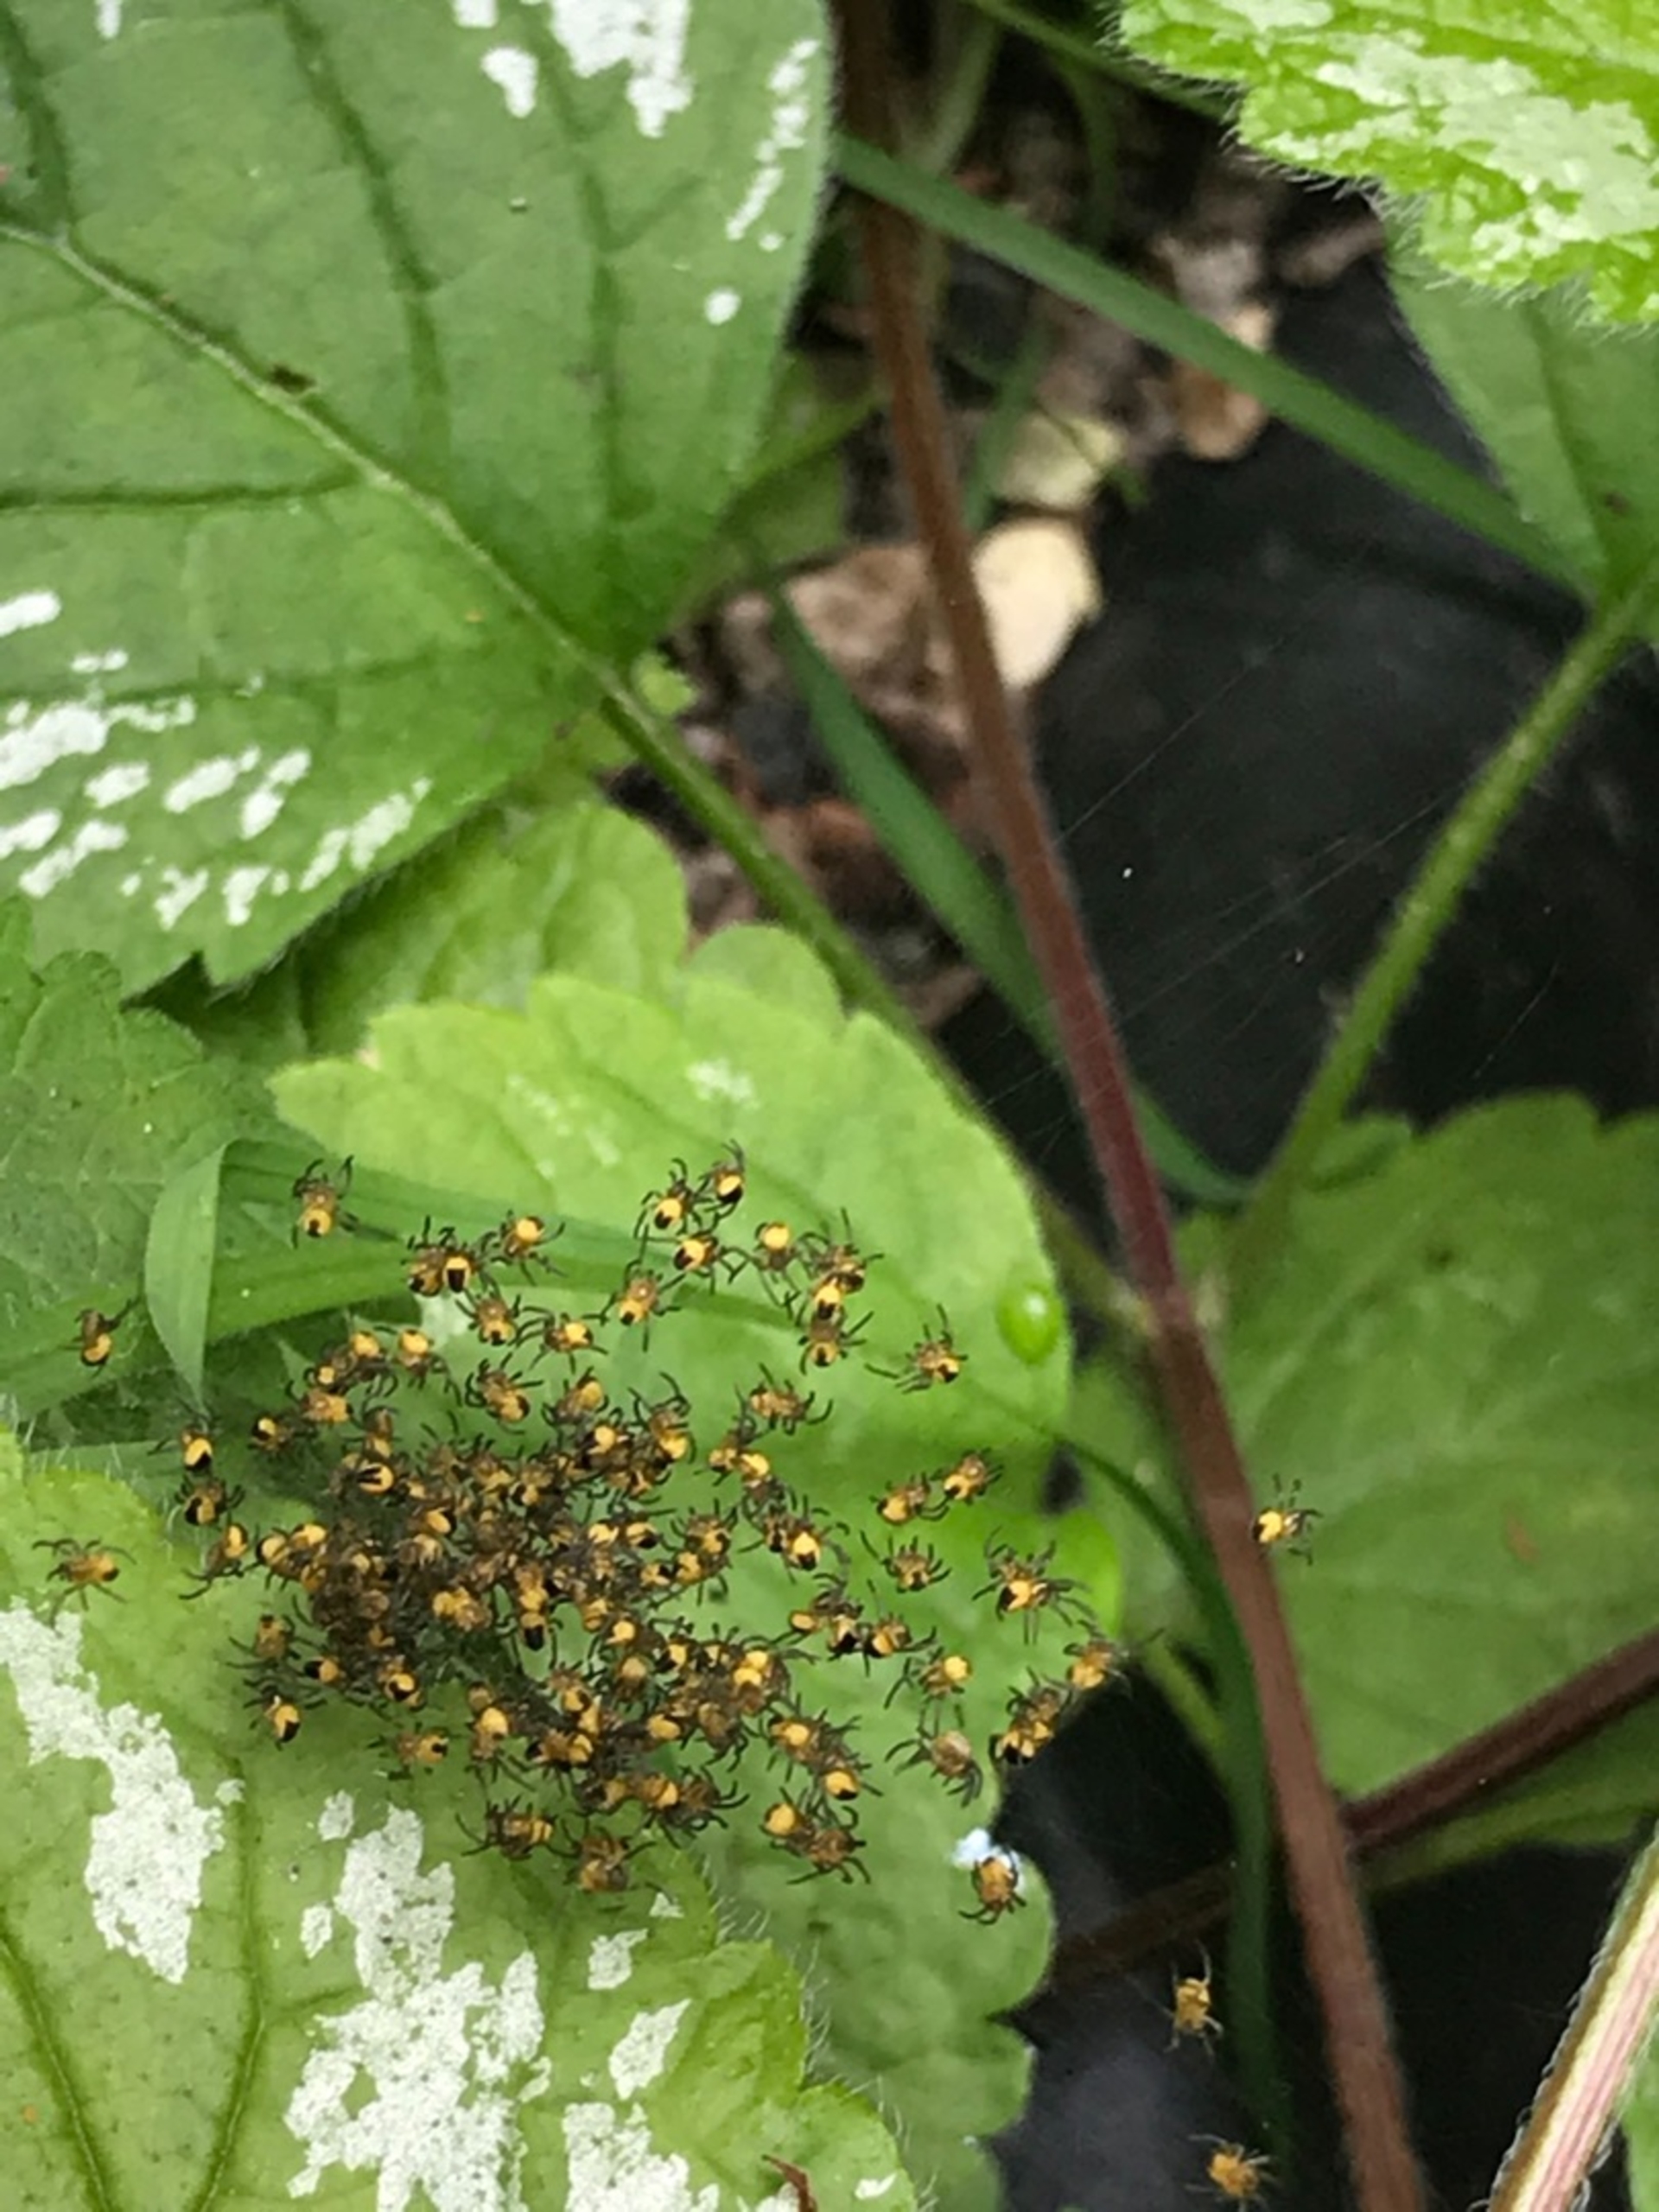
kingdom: Animalia
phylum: Arthropoda
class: Arachnida
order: Araneae
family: Araneidae
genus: Araneus
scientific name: Araneus diadematus
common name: Korsedderkop
